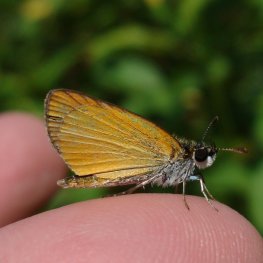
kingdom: Animalia
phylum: Arthropoda
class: Insecta
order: Lepidoptera
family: Hesperiidae
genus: Ancyloxypha
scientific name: Ancyloxypha numitor
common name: Least Skipper
